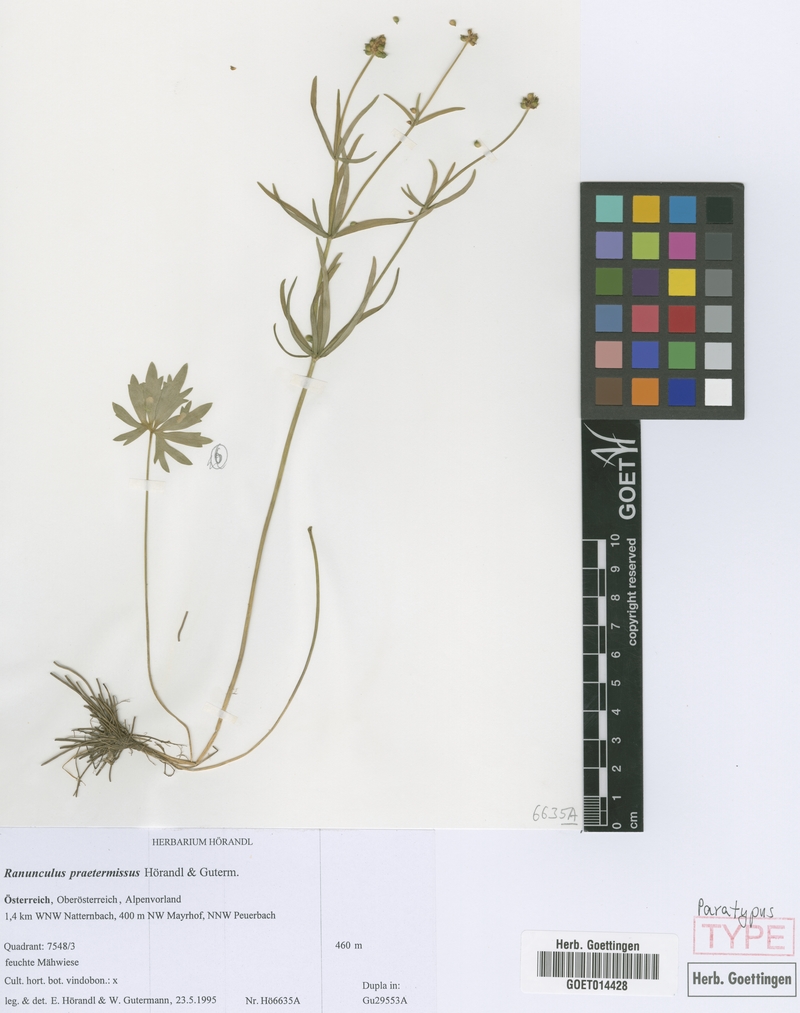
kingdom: Plantae
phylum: Tracheophyta
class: Magnoliopsida
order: Ranunculales
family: Ranunculaceae
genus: Ranunculus
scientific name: Ranunculus praetermissus
